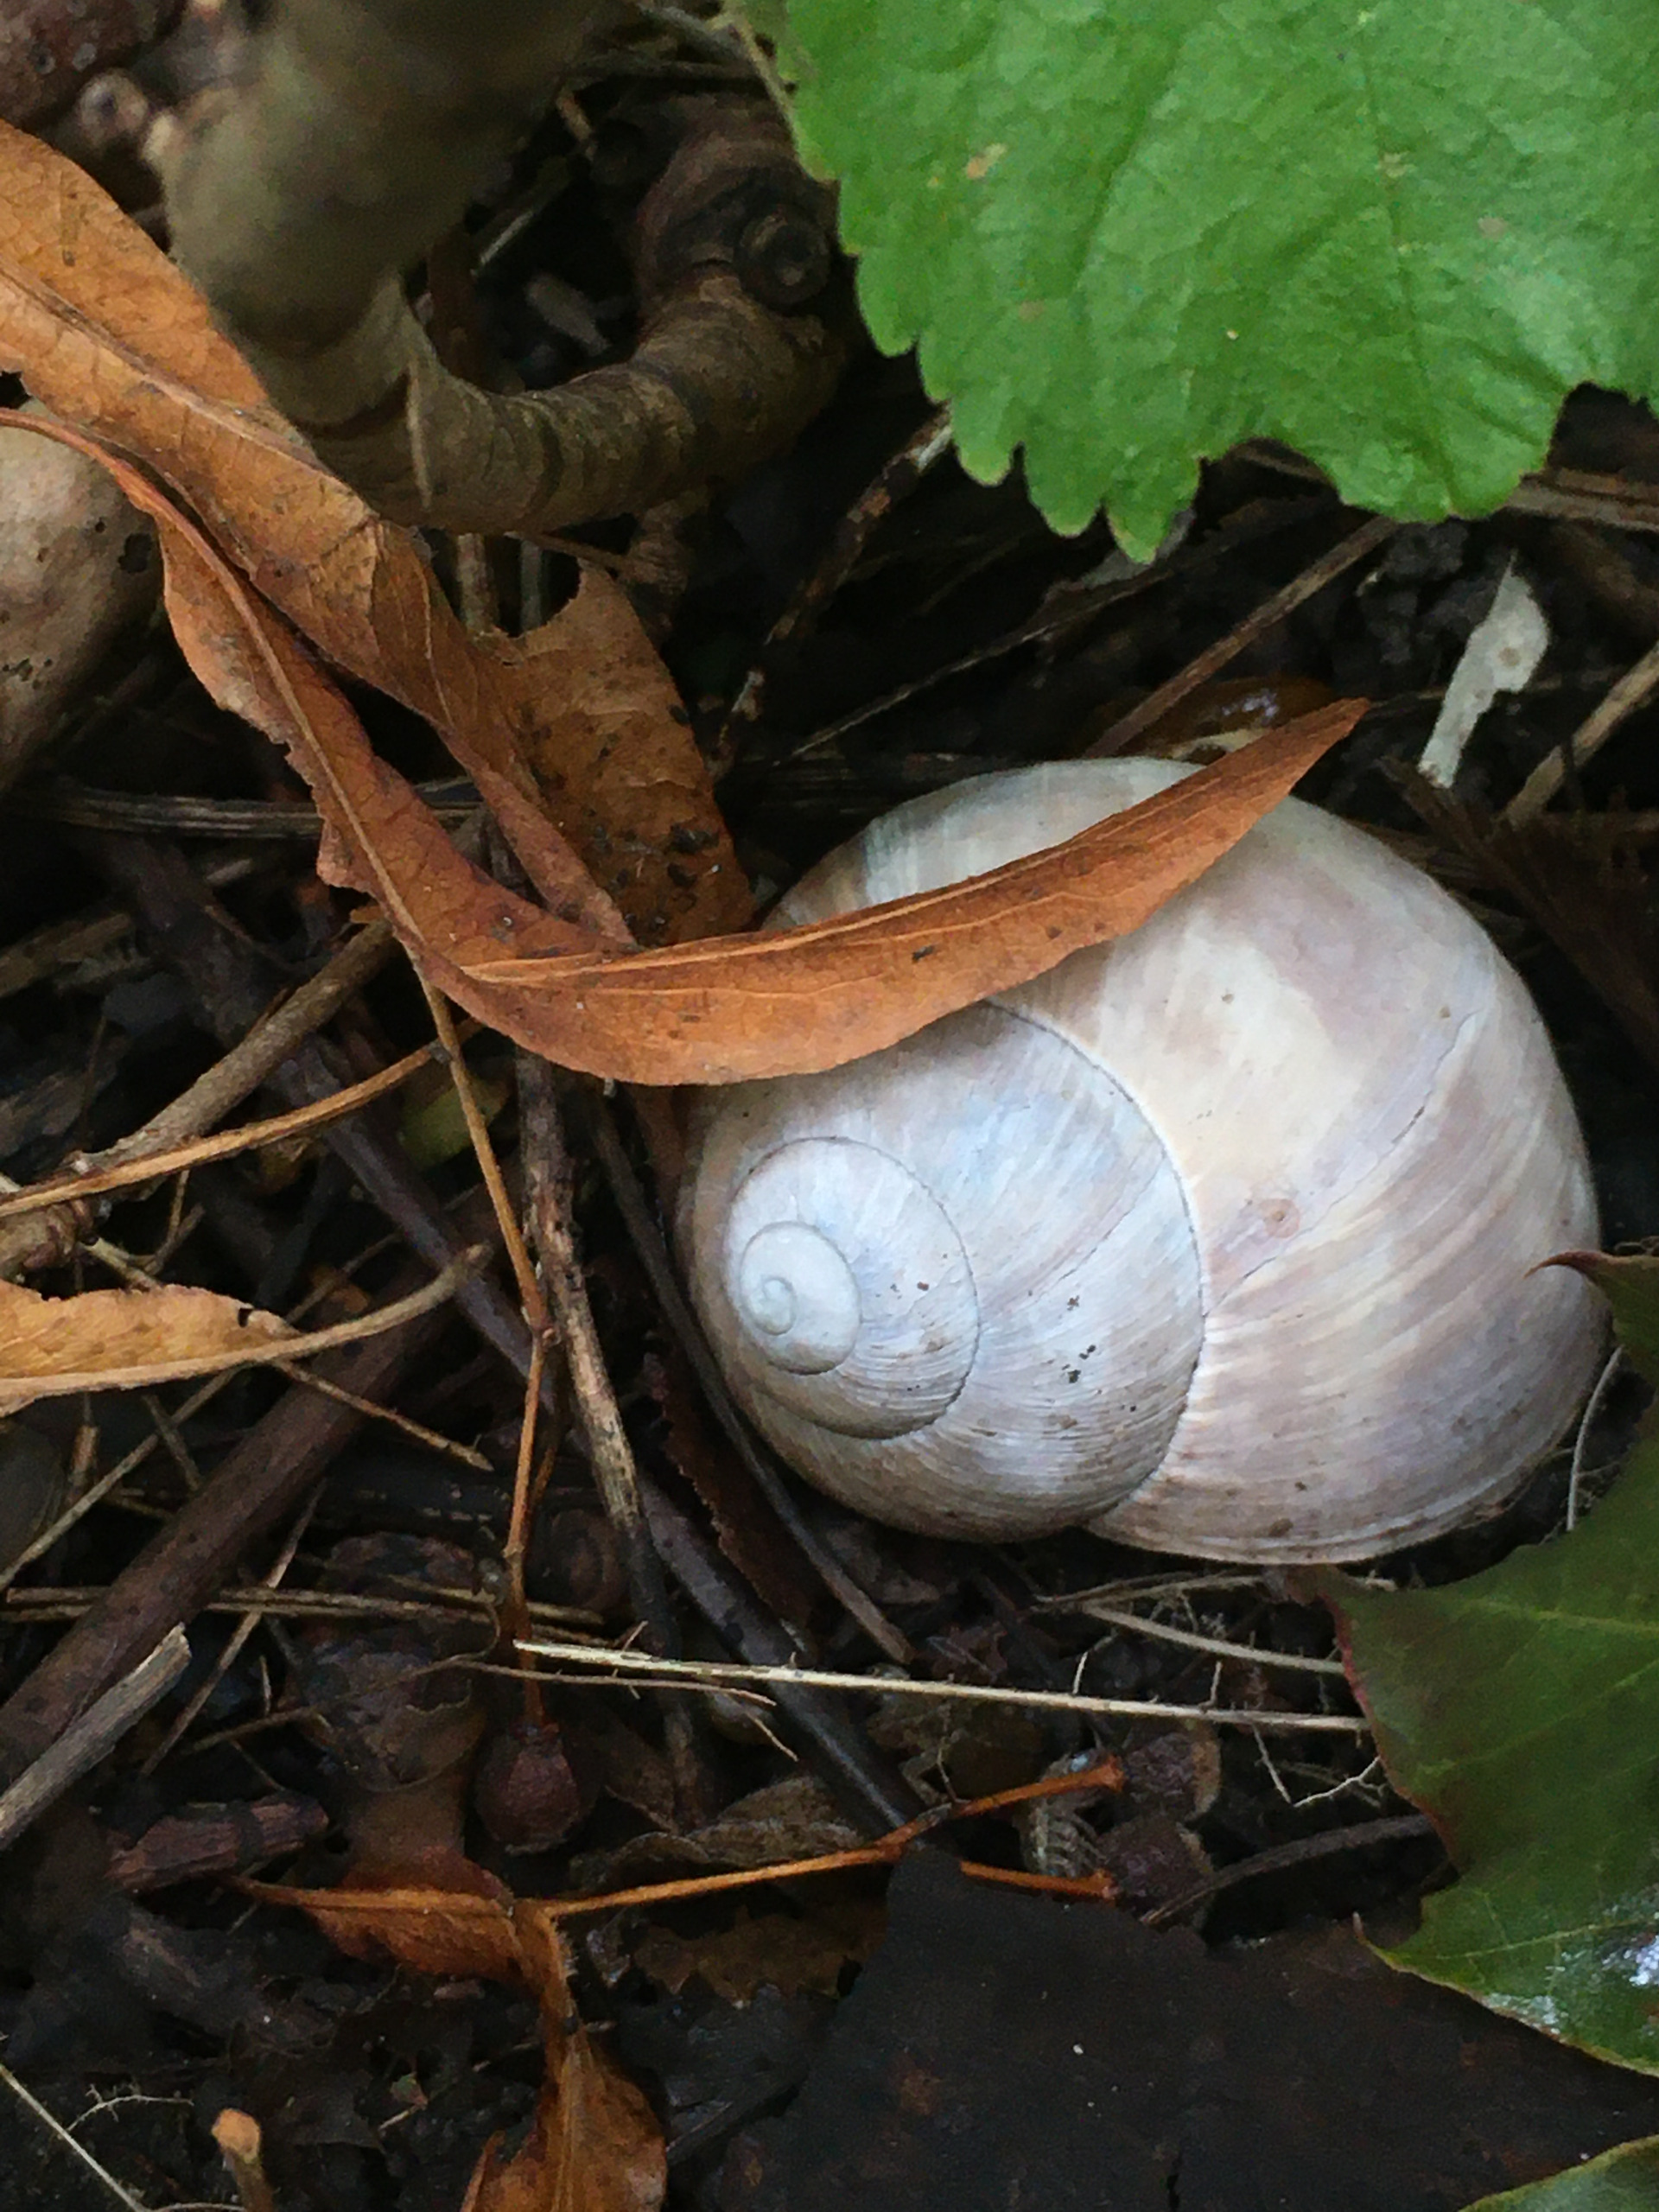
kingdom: Animalia
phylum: Mollusca
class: Gastropoda
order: Stylommatophora
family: Helicidae
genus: Helix
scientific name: Helix pomatia
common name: Vinbjergsnegl
